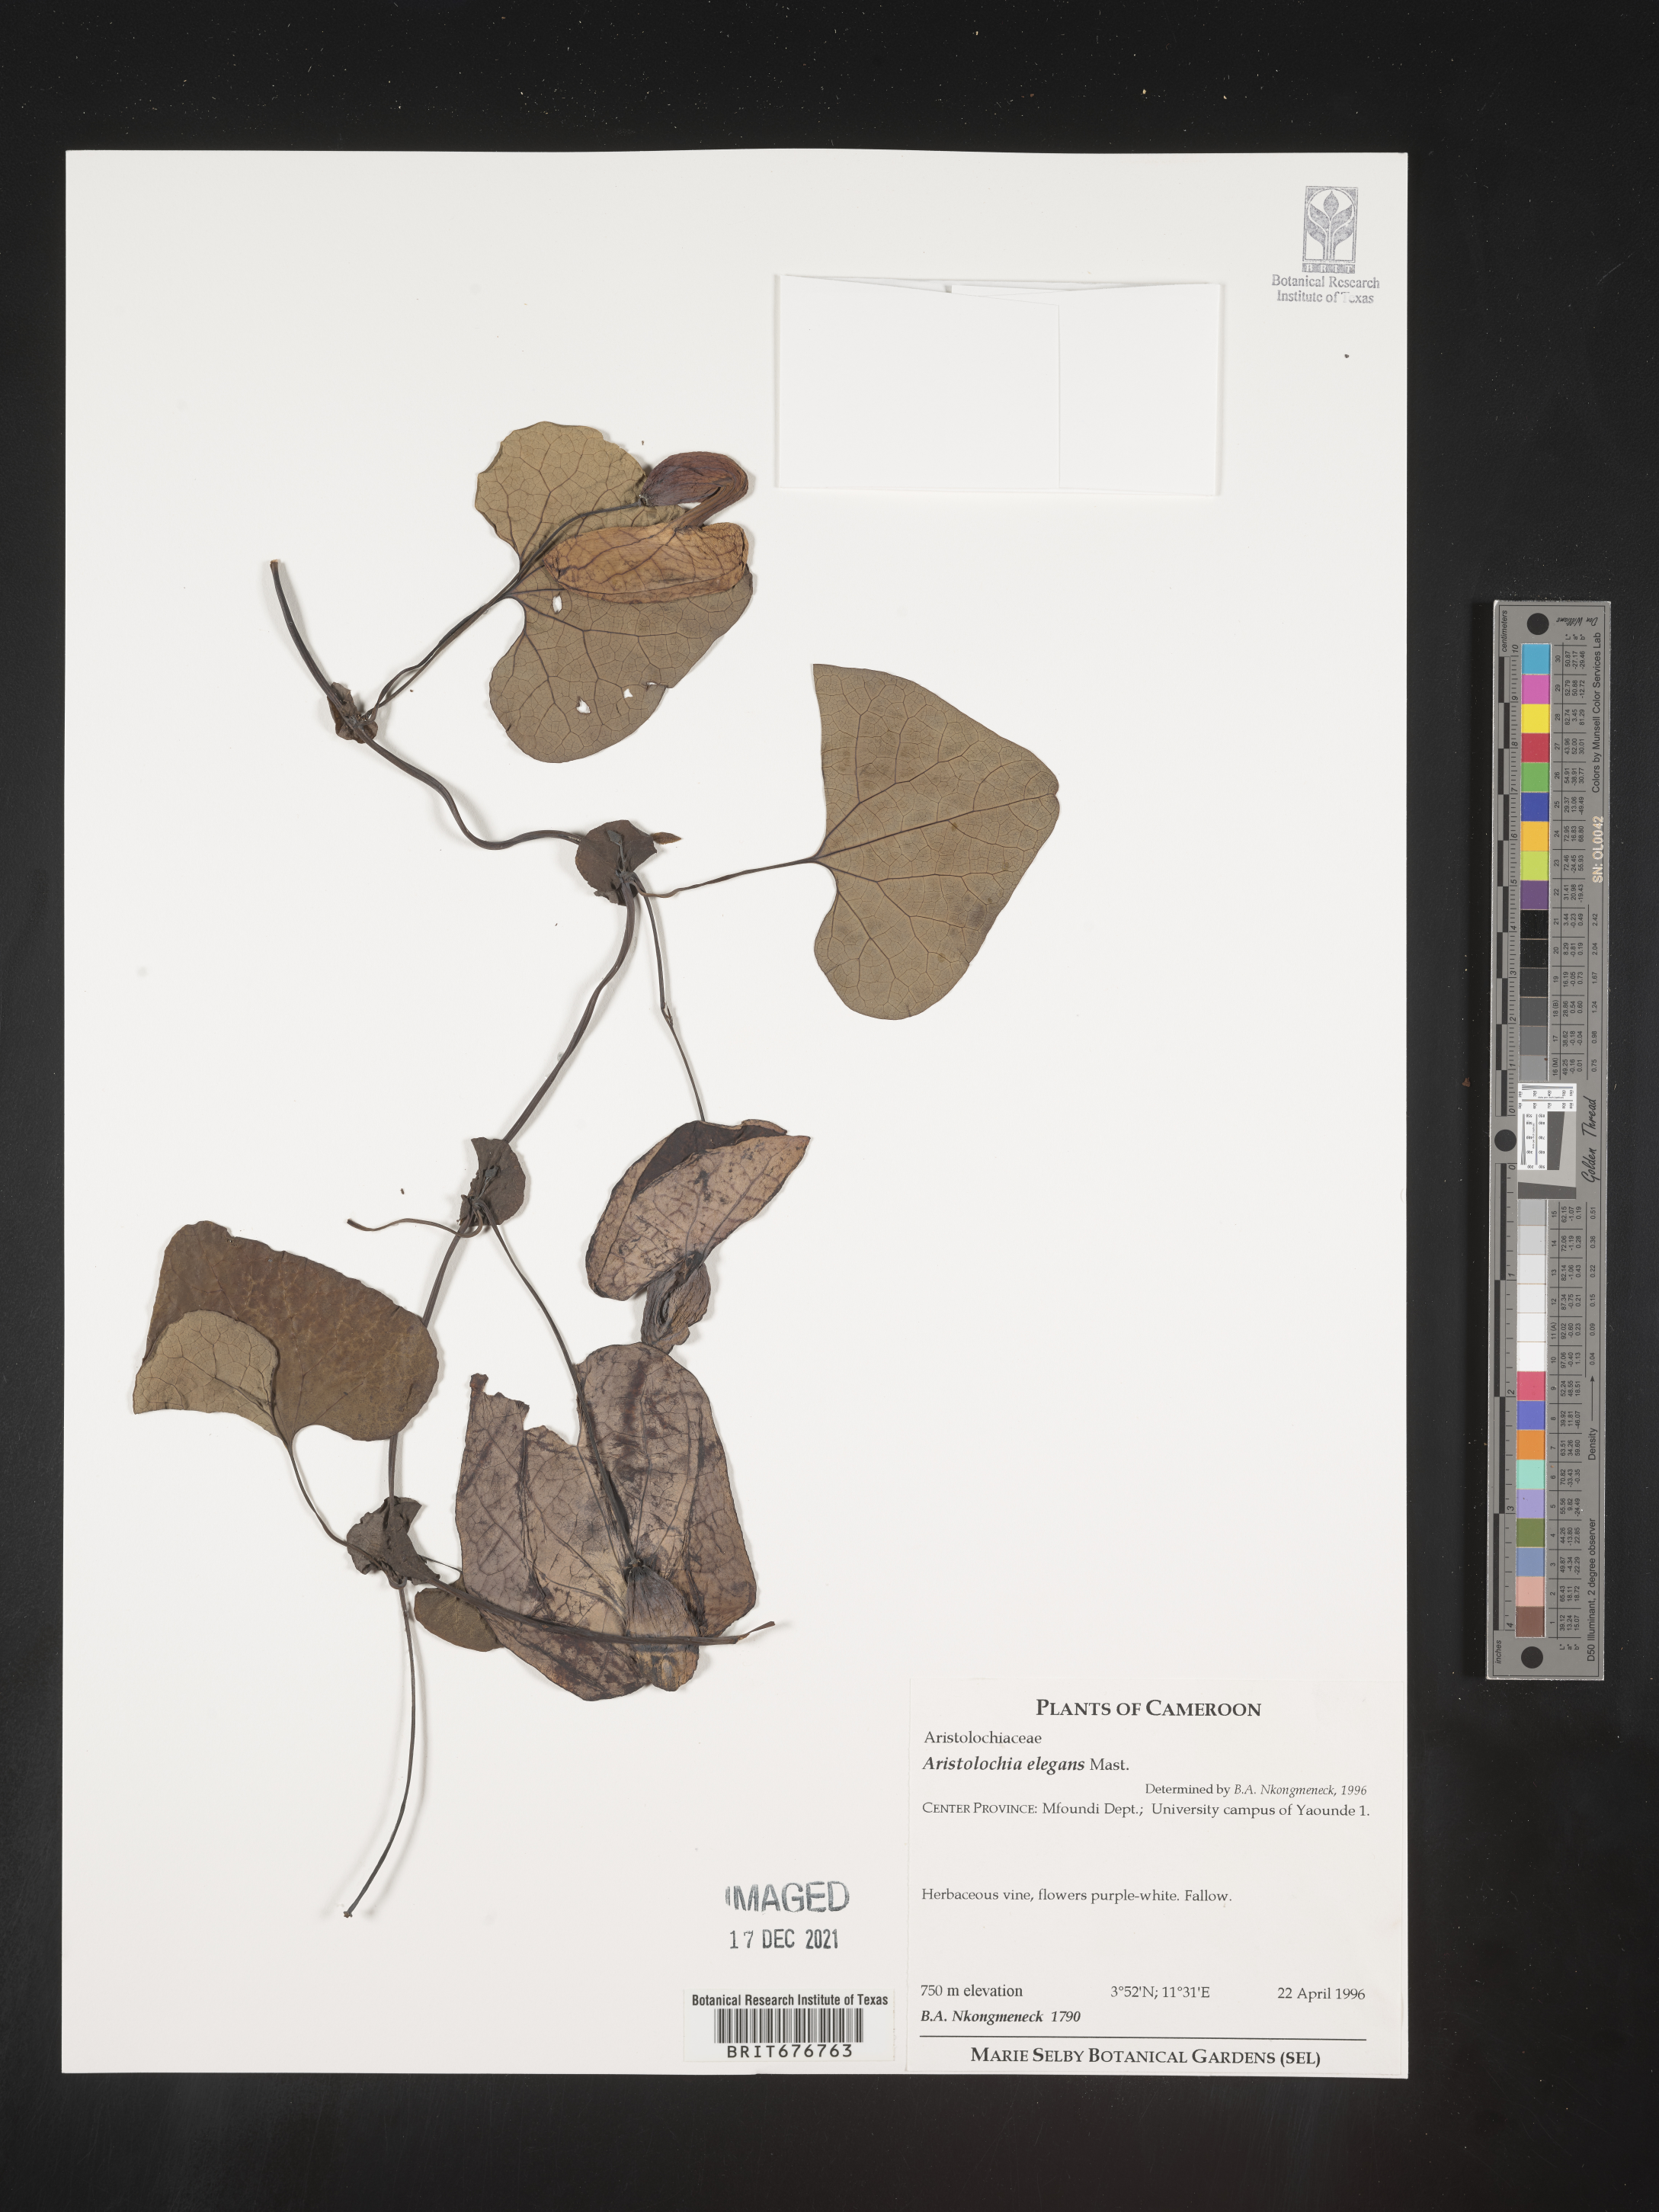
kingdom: Plantae
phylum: Tracheophyta
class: Magnoliopsida
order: Piperales
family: Aristolochiaceae
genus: Aristolochia
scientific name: Aristolochia
